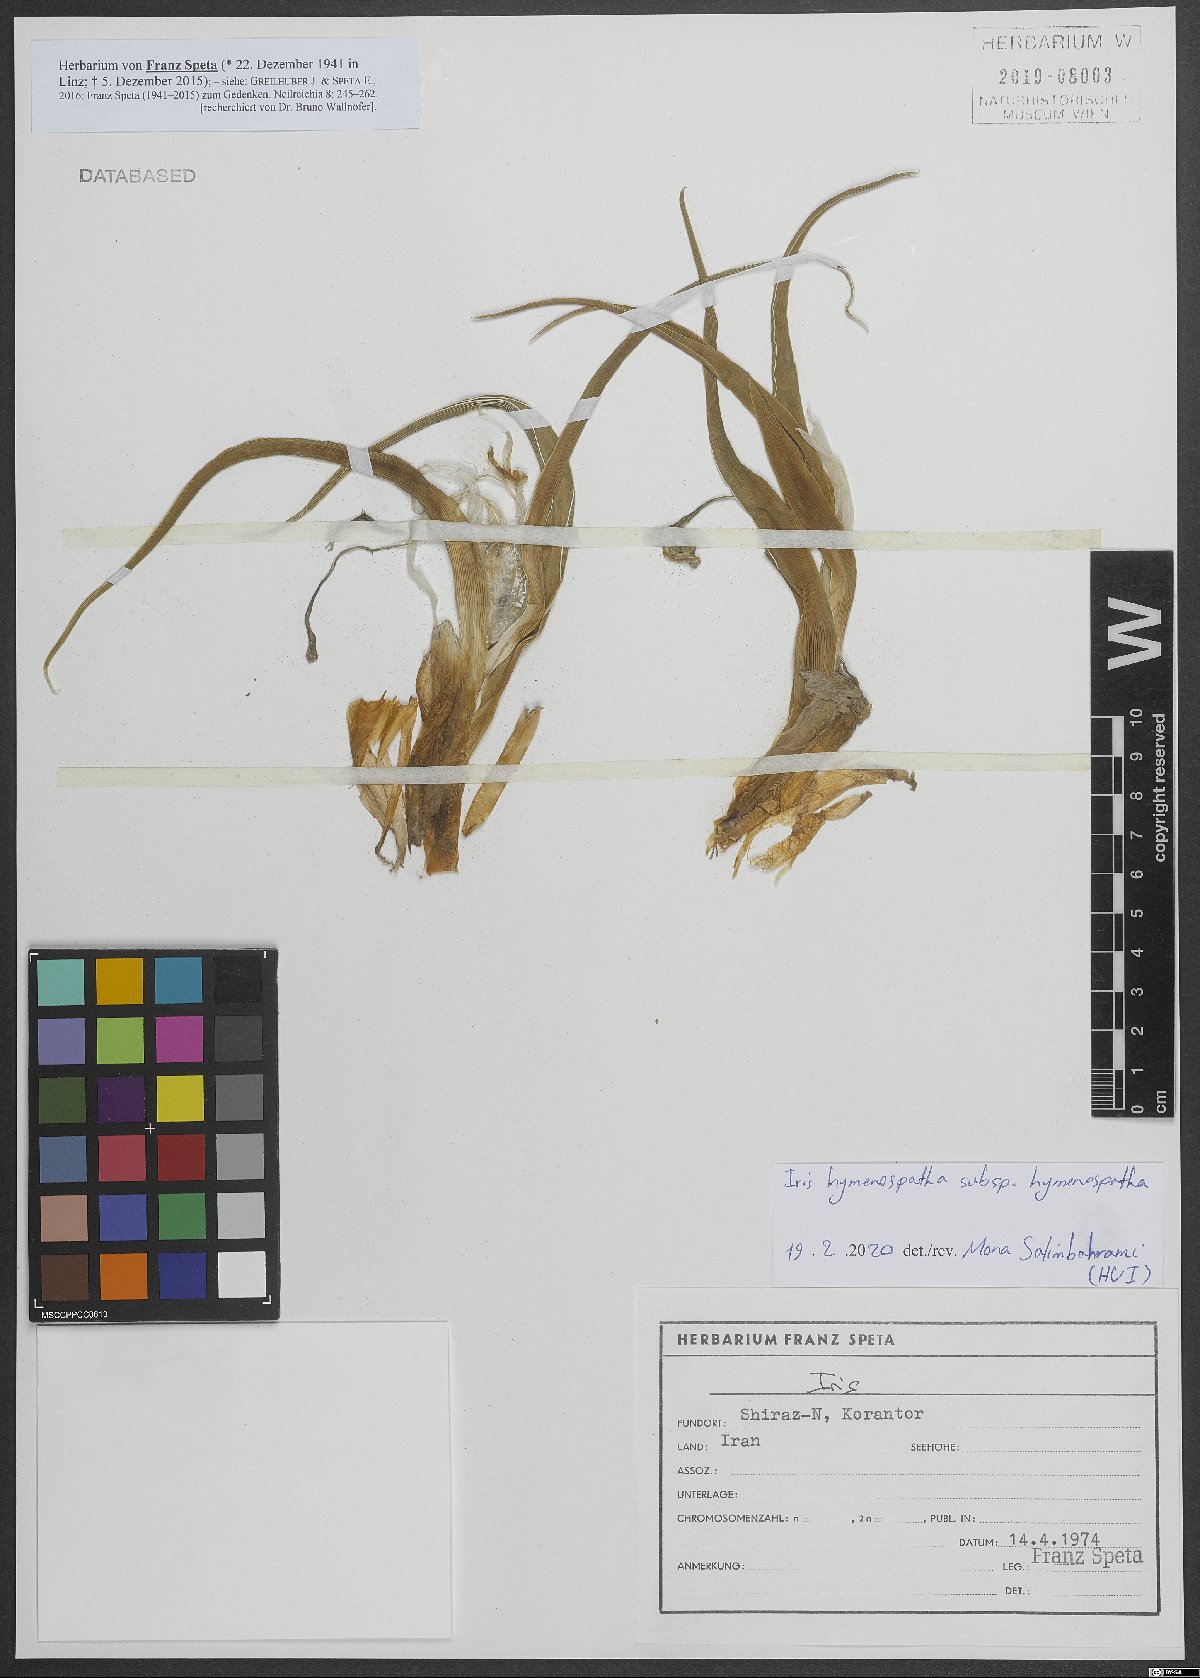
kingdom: Plantae
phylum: Tracheophyta
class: Liliopsida
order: Asparagales
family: Iridaceae
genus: Iris
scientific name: Iris hymenospatha
